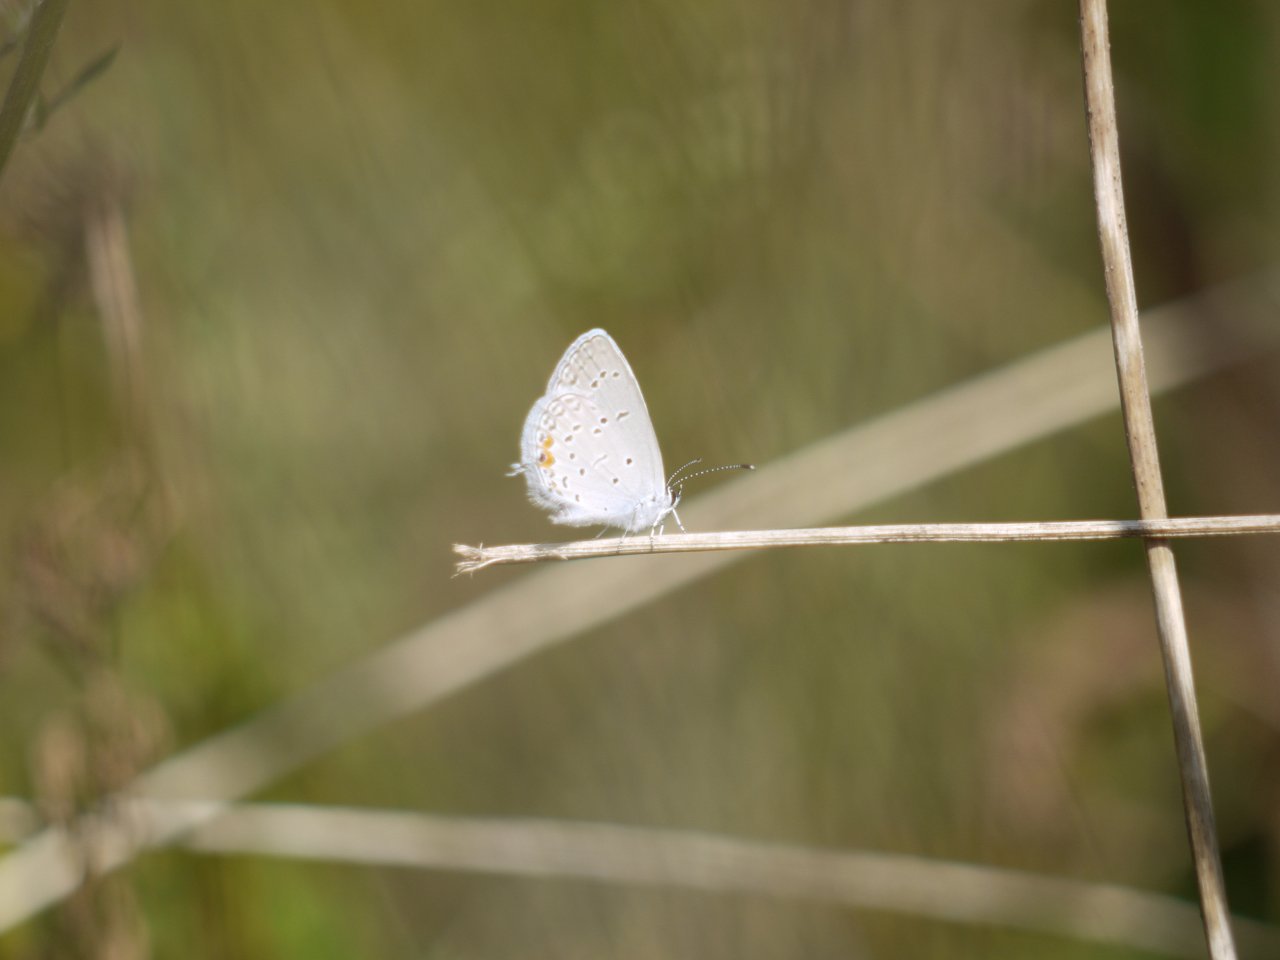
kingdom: Animalia
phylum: Arthropoda
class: Insecta
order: Lepidoptera
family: Lycaenidae
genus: Elkalyce
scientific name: Elkalyce comyntas
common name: Eastern Tailed-Blue
